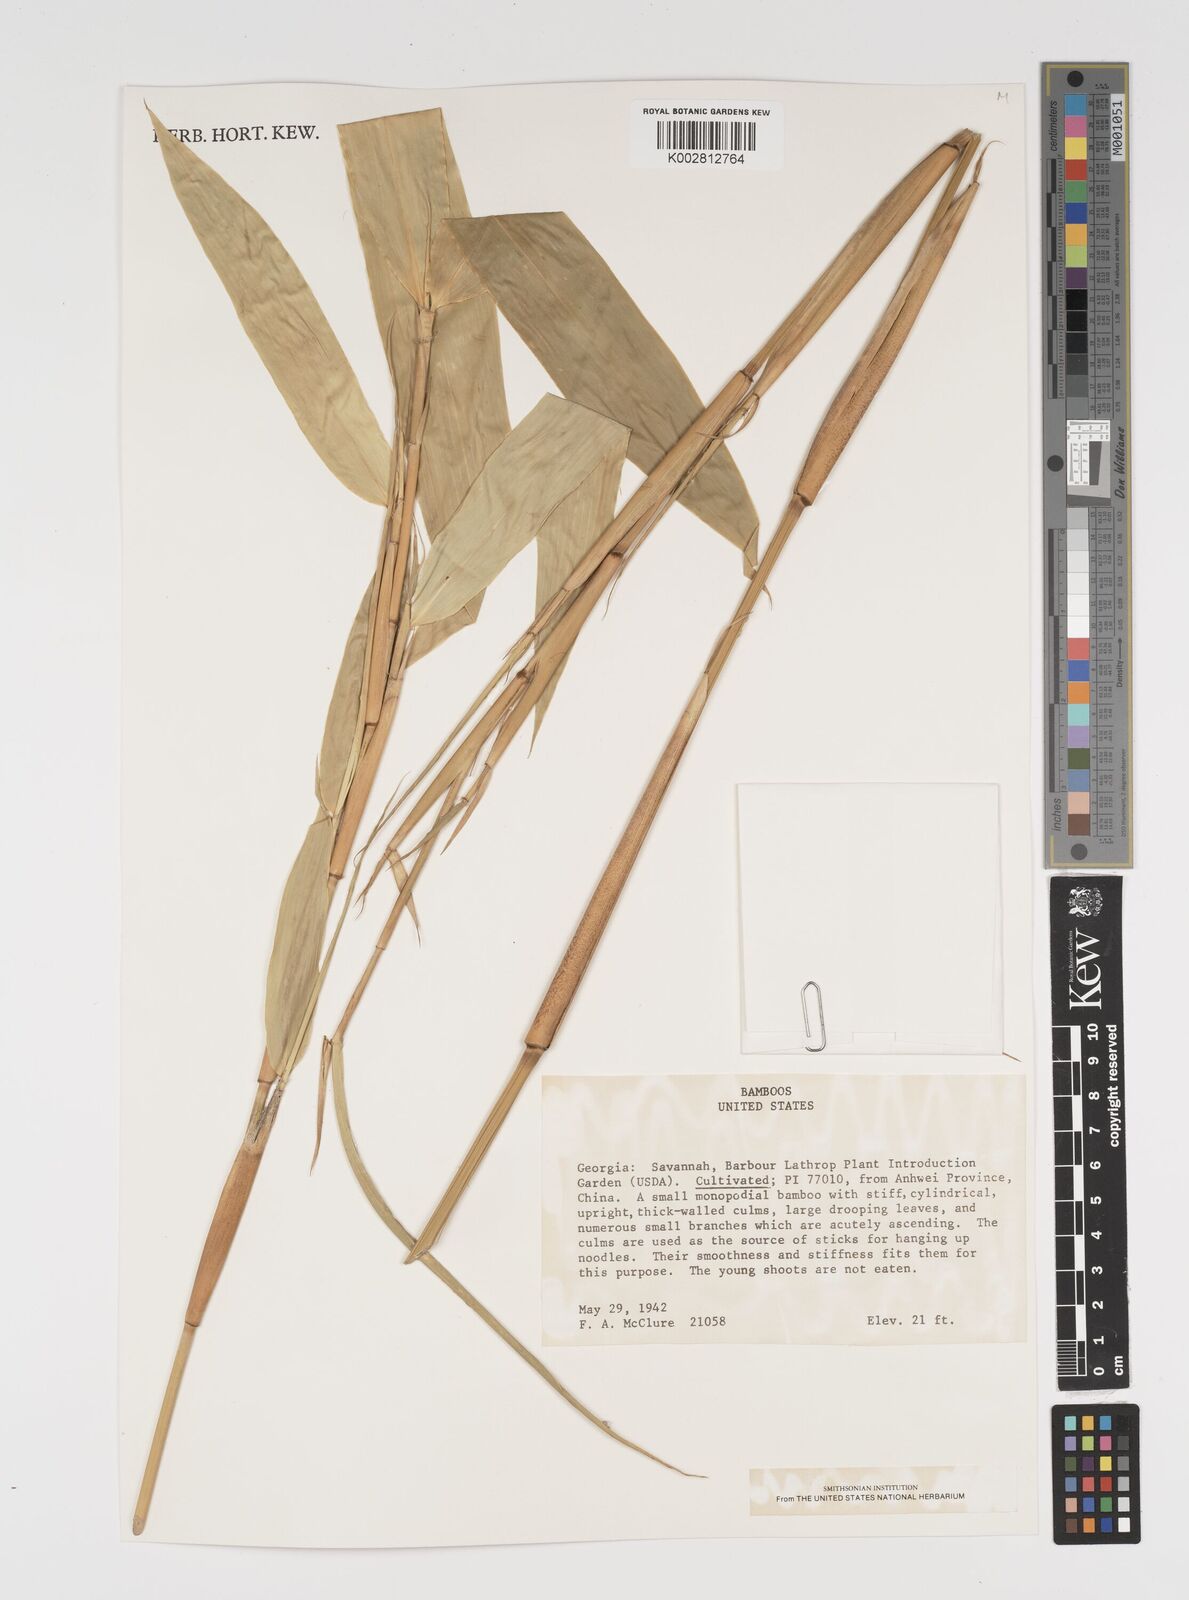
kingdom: Plantae
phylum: Tracheophyta
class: Liliopsida
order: Poales
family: Poaceae
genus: Arundinaria
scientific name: Arundinaria
